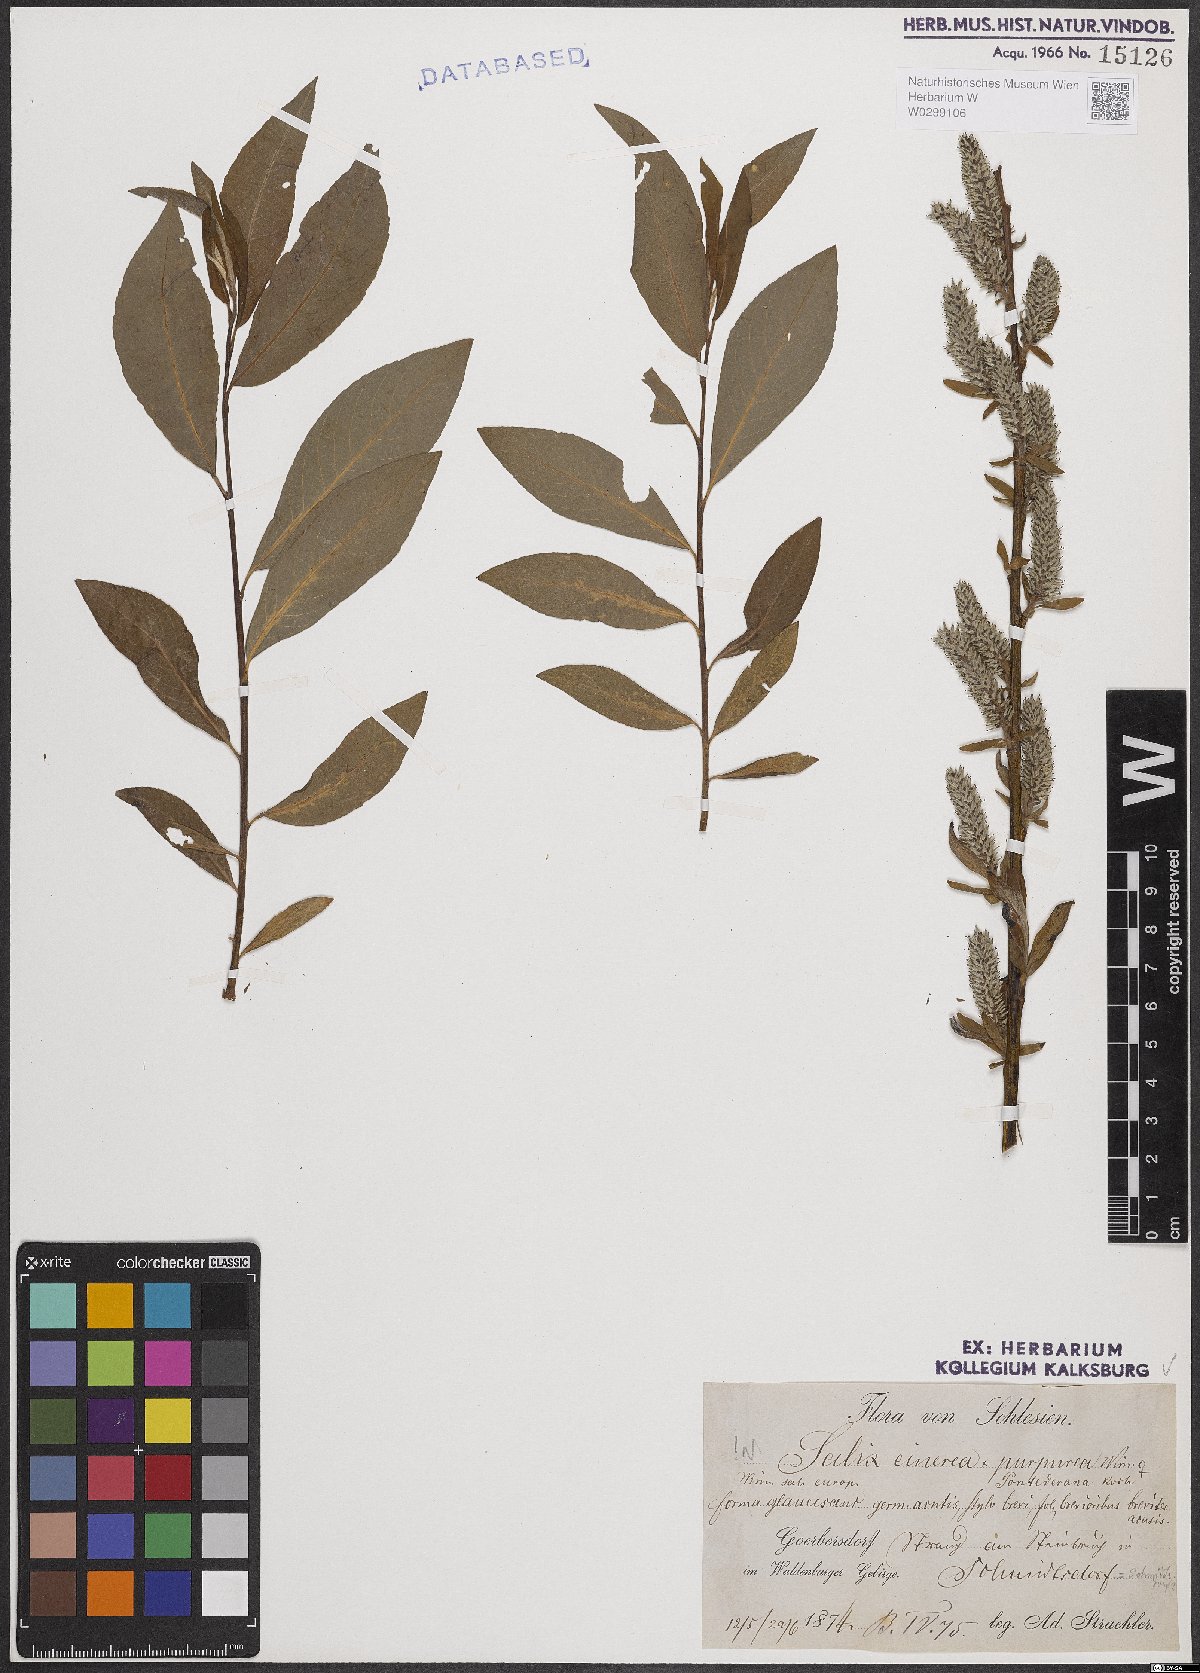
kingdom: Plantae
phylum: Tracheophyta
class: Magnoliopsida
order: Malpighiales
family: Salicaceae
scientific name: Salicaceae
